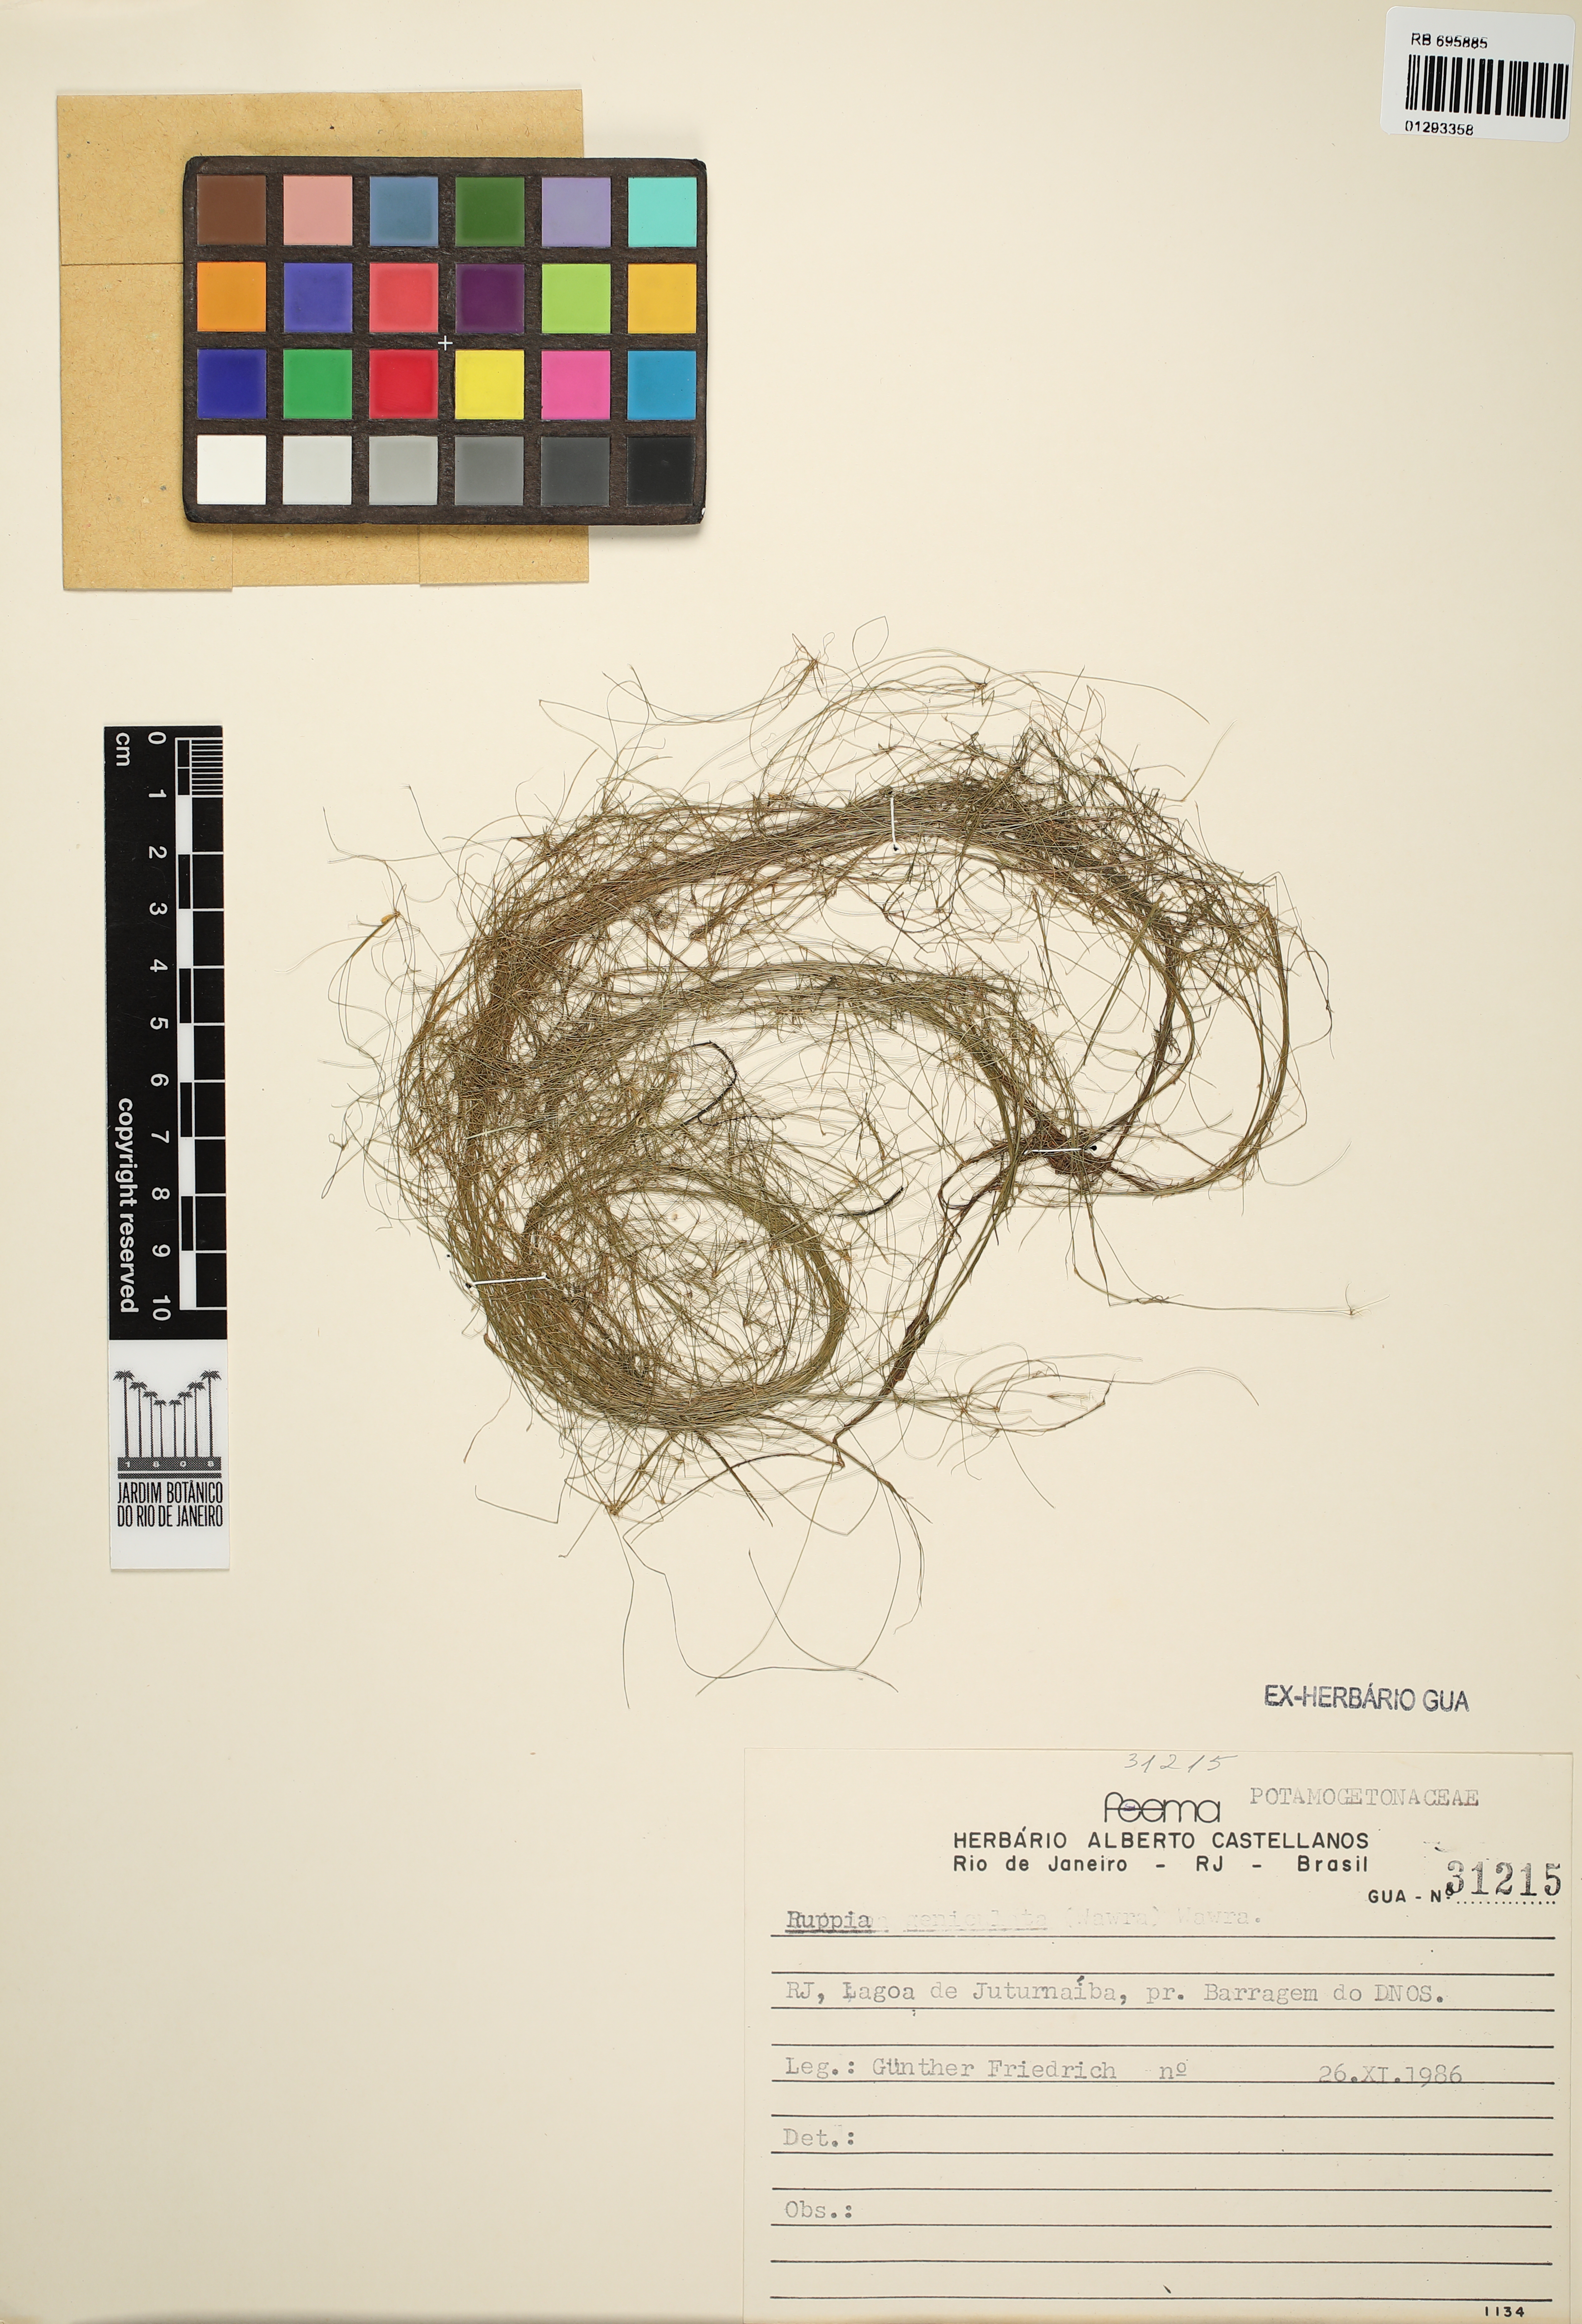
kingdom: Plantae
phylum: Tracheophyta
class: Liliopsida
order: Alismatales
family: Ruppiaceae
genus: Ruppia
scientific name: Ruppia
